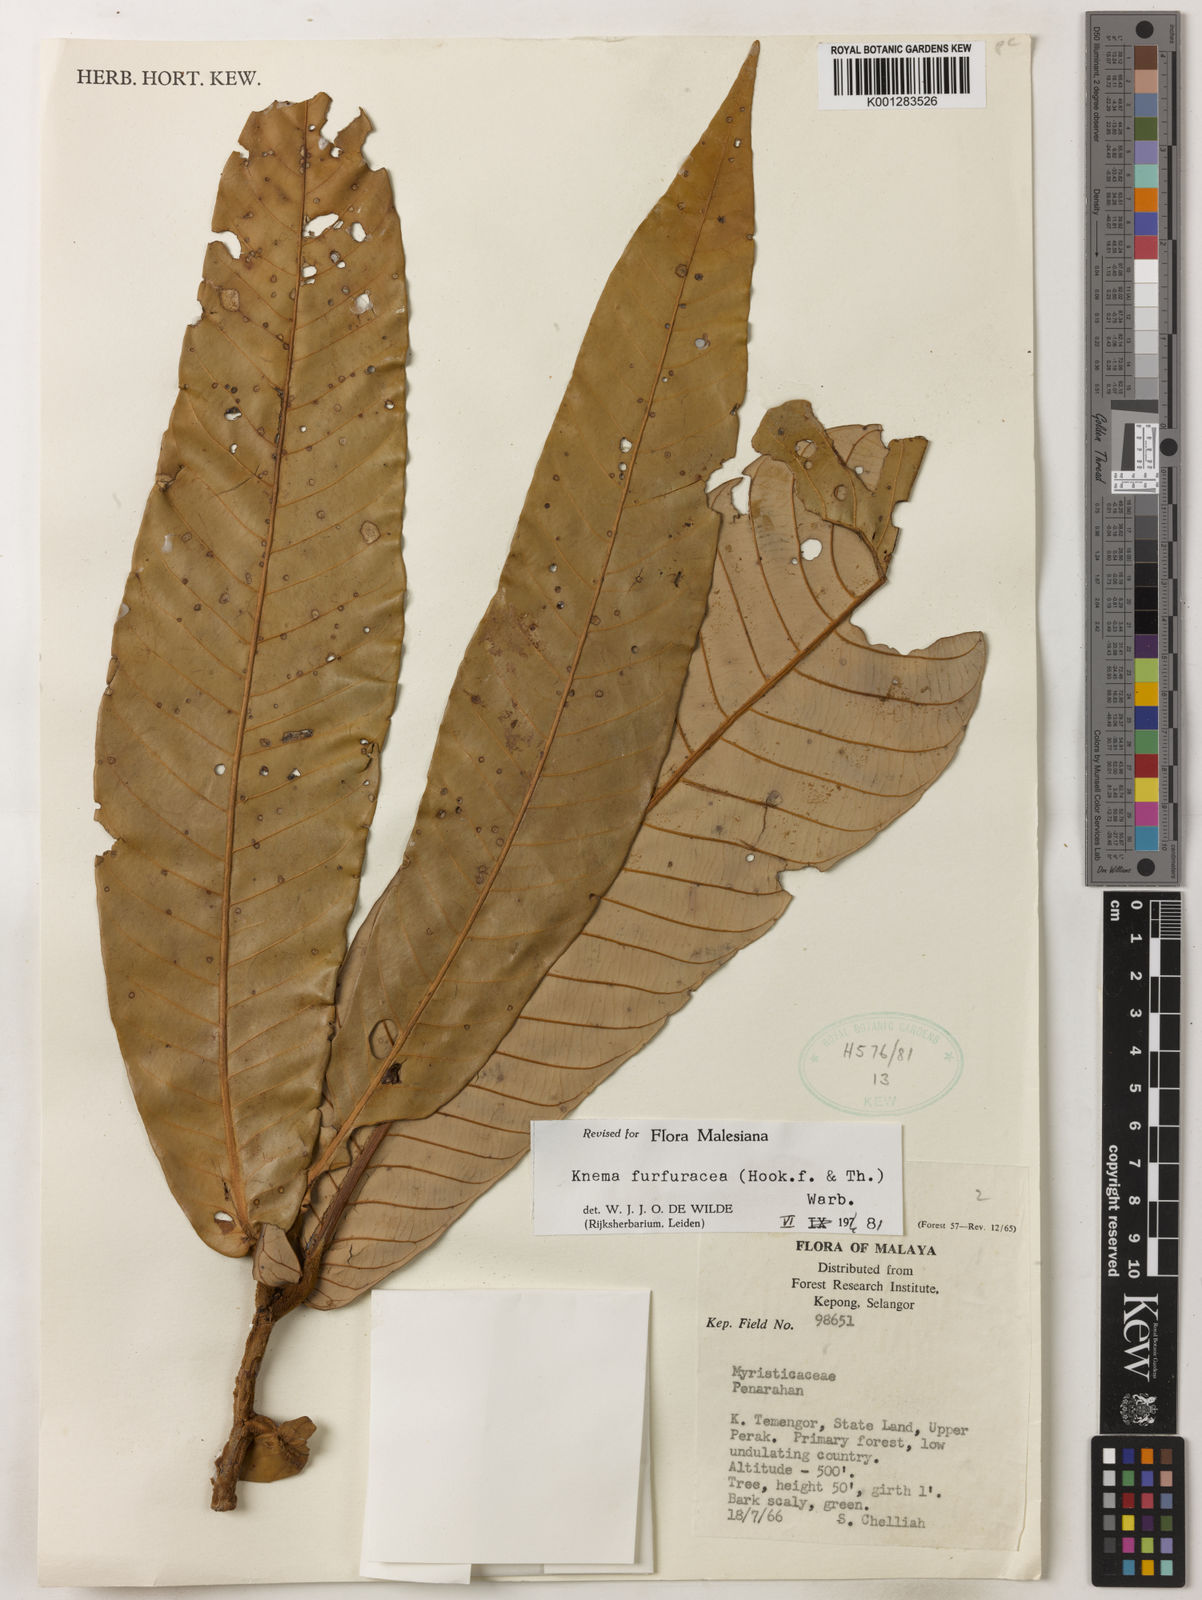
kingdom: Plantae
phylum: Tracheophyta
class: Magnoliopsida
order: Magnoliales
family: Myristicaceae
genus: Knema
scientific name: Knema furfuracea
